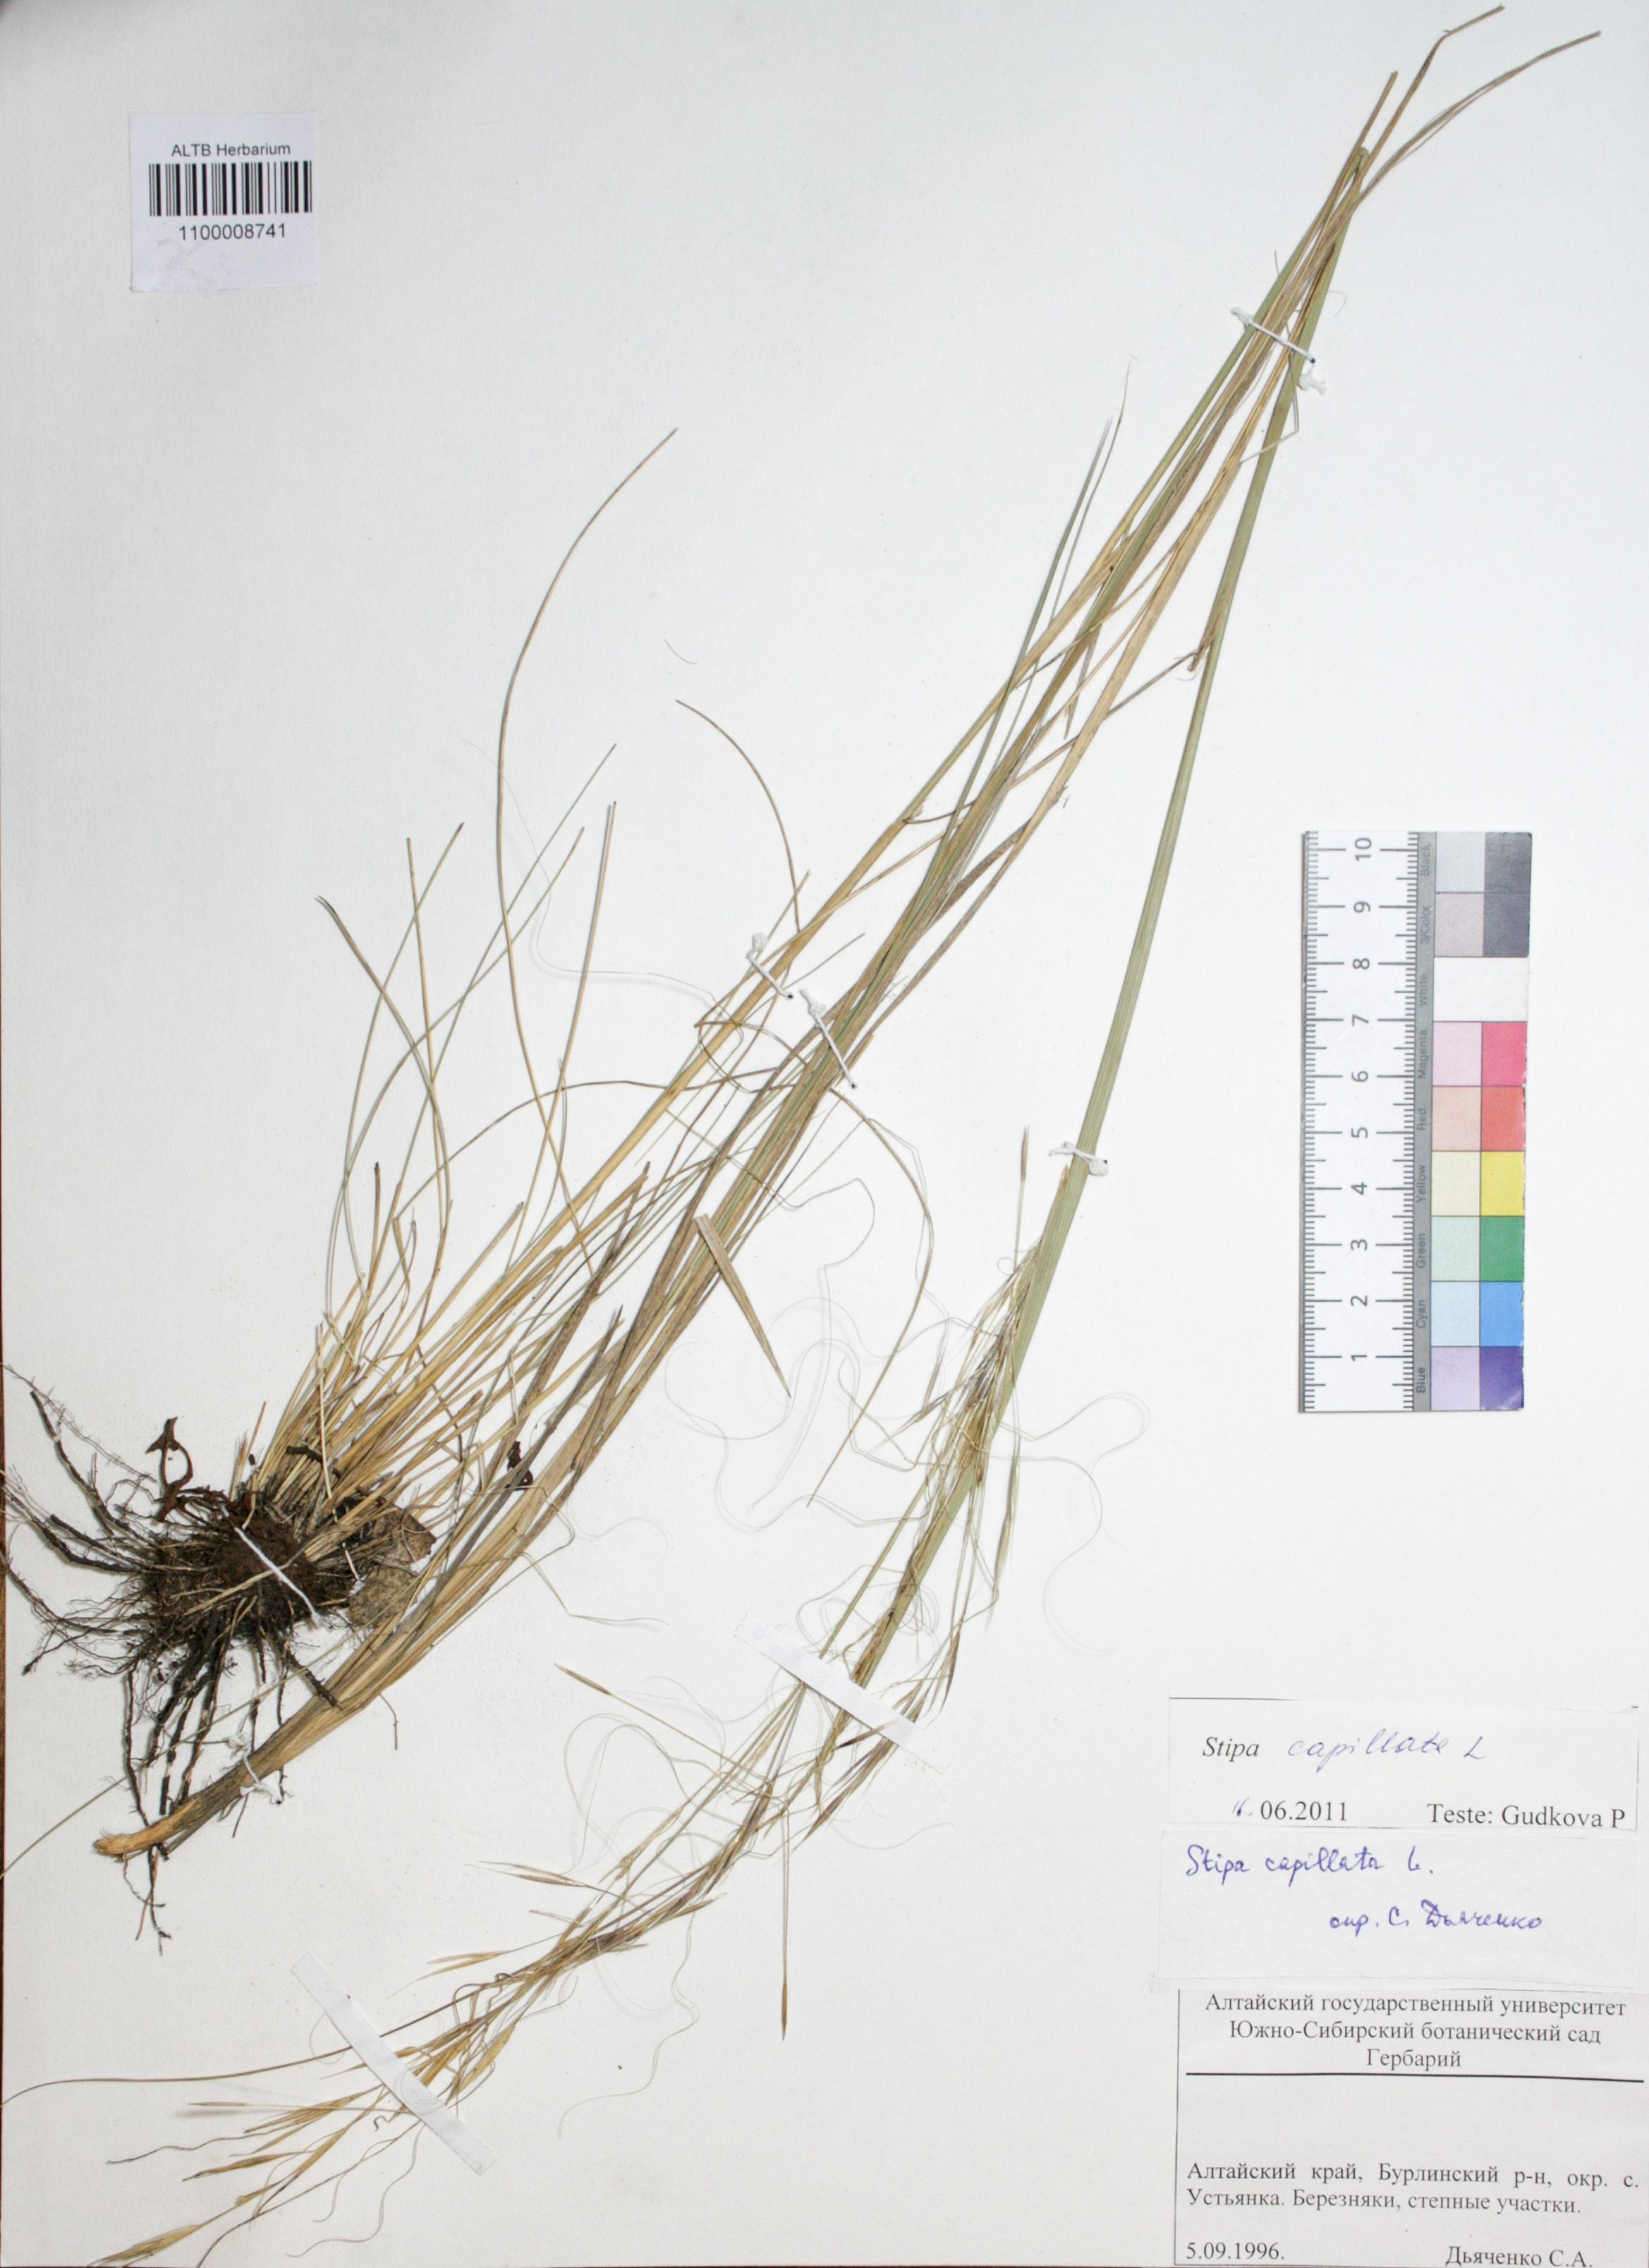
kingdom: Plantae
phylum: Tracheophyta
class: Liliopsida
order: Poales
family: Poaceae
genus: Stipa
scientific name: Stipa capillata
